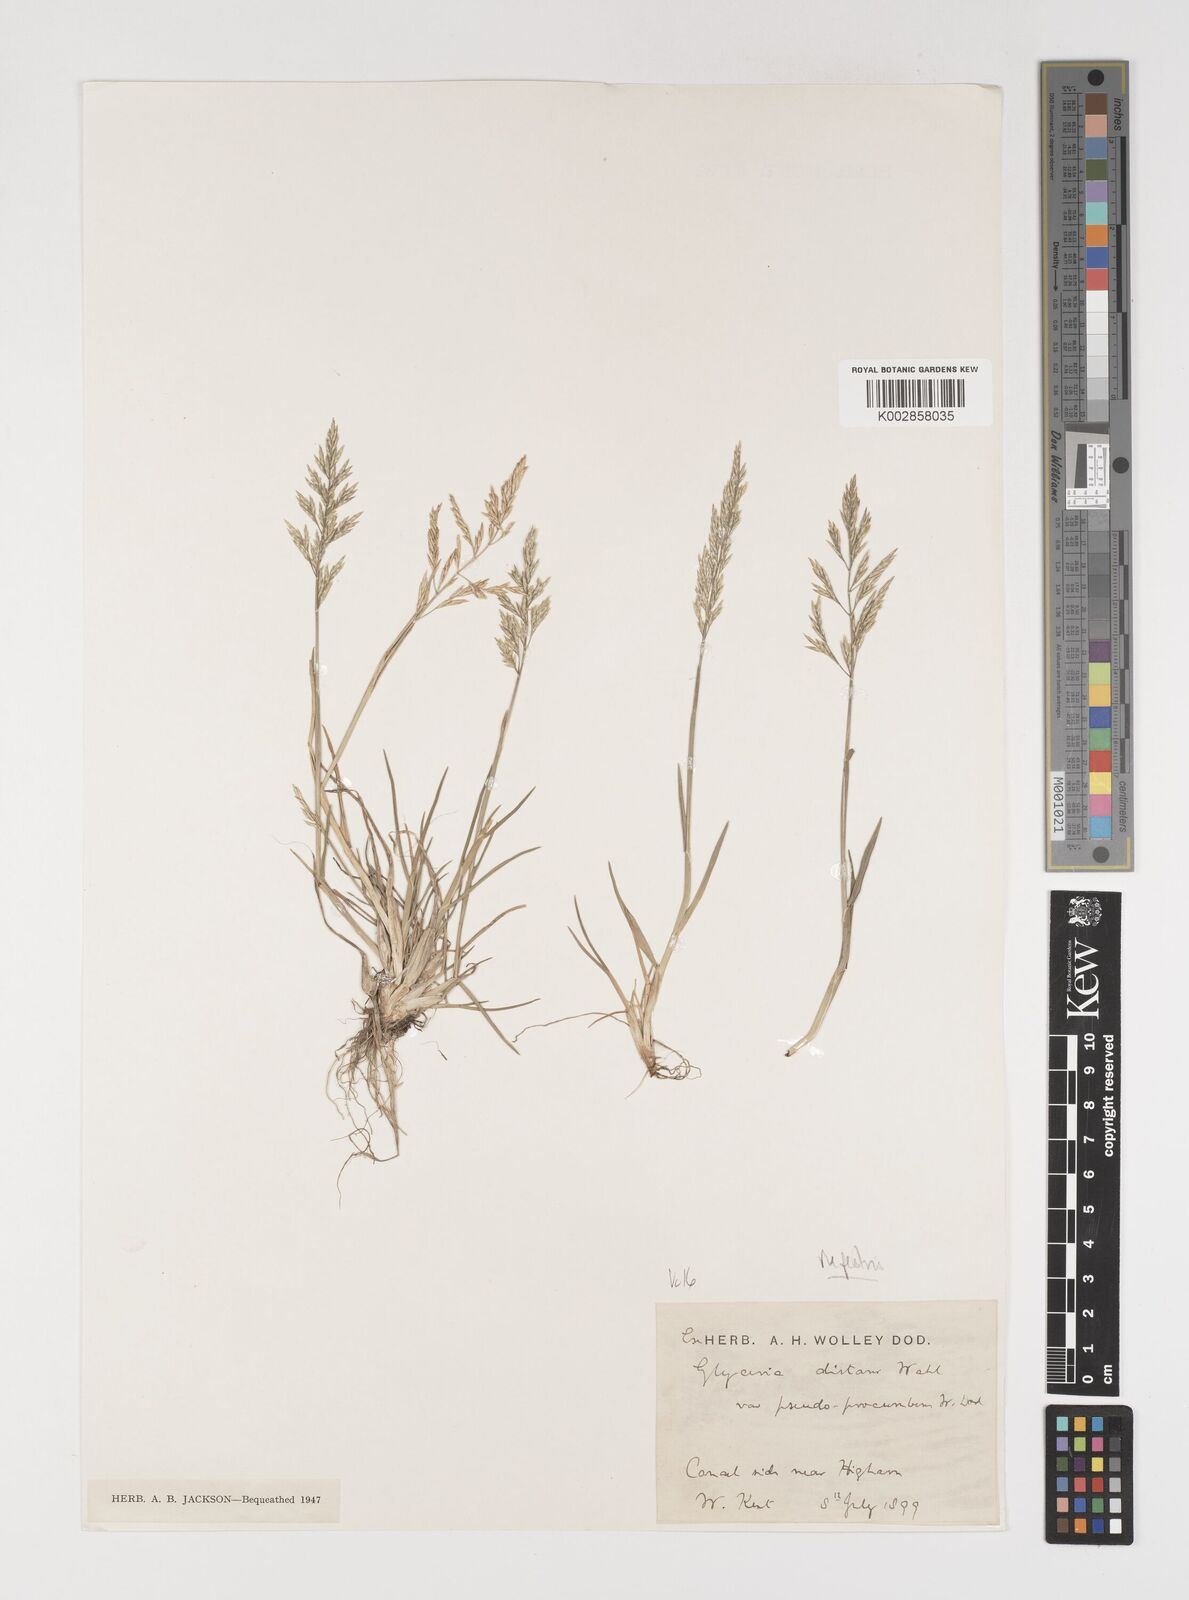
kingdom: Plantae
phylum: Tracheophyta
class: Liliopsida
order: Poales
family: Poaceae
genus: Puccinellia
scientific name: Puccinellia rupestris
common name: Stiff saltmarsh-grass
